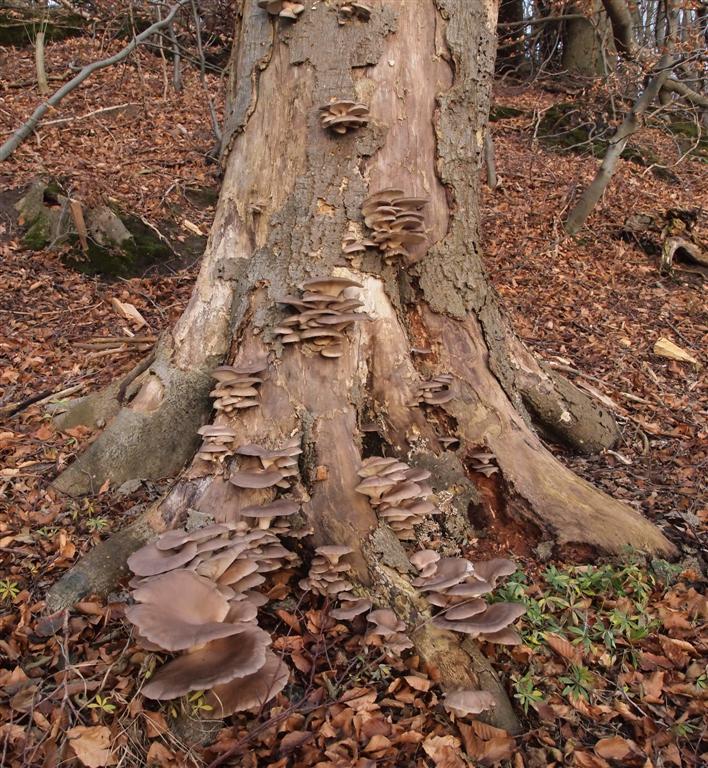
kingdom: Fungi
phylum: Basidiomycota
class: Agaricomycetes
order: Agaricales
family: Pleurotaceae
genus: Pleurotus
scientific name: Pleurotus ostreatus
